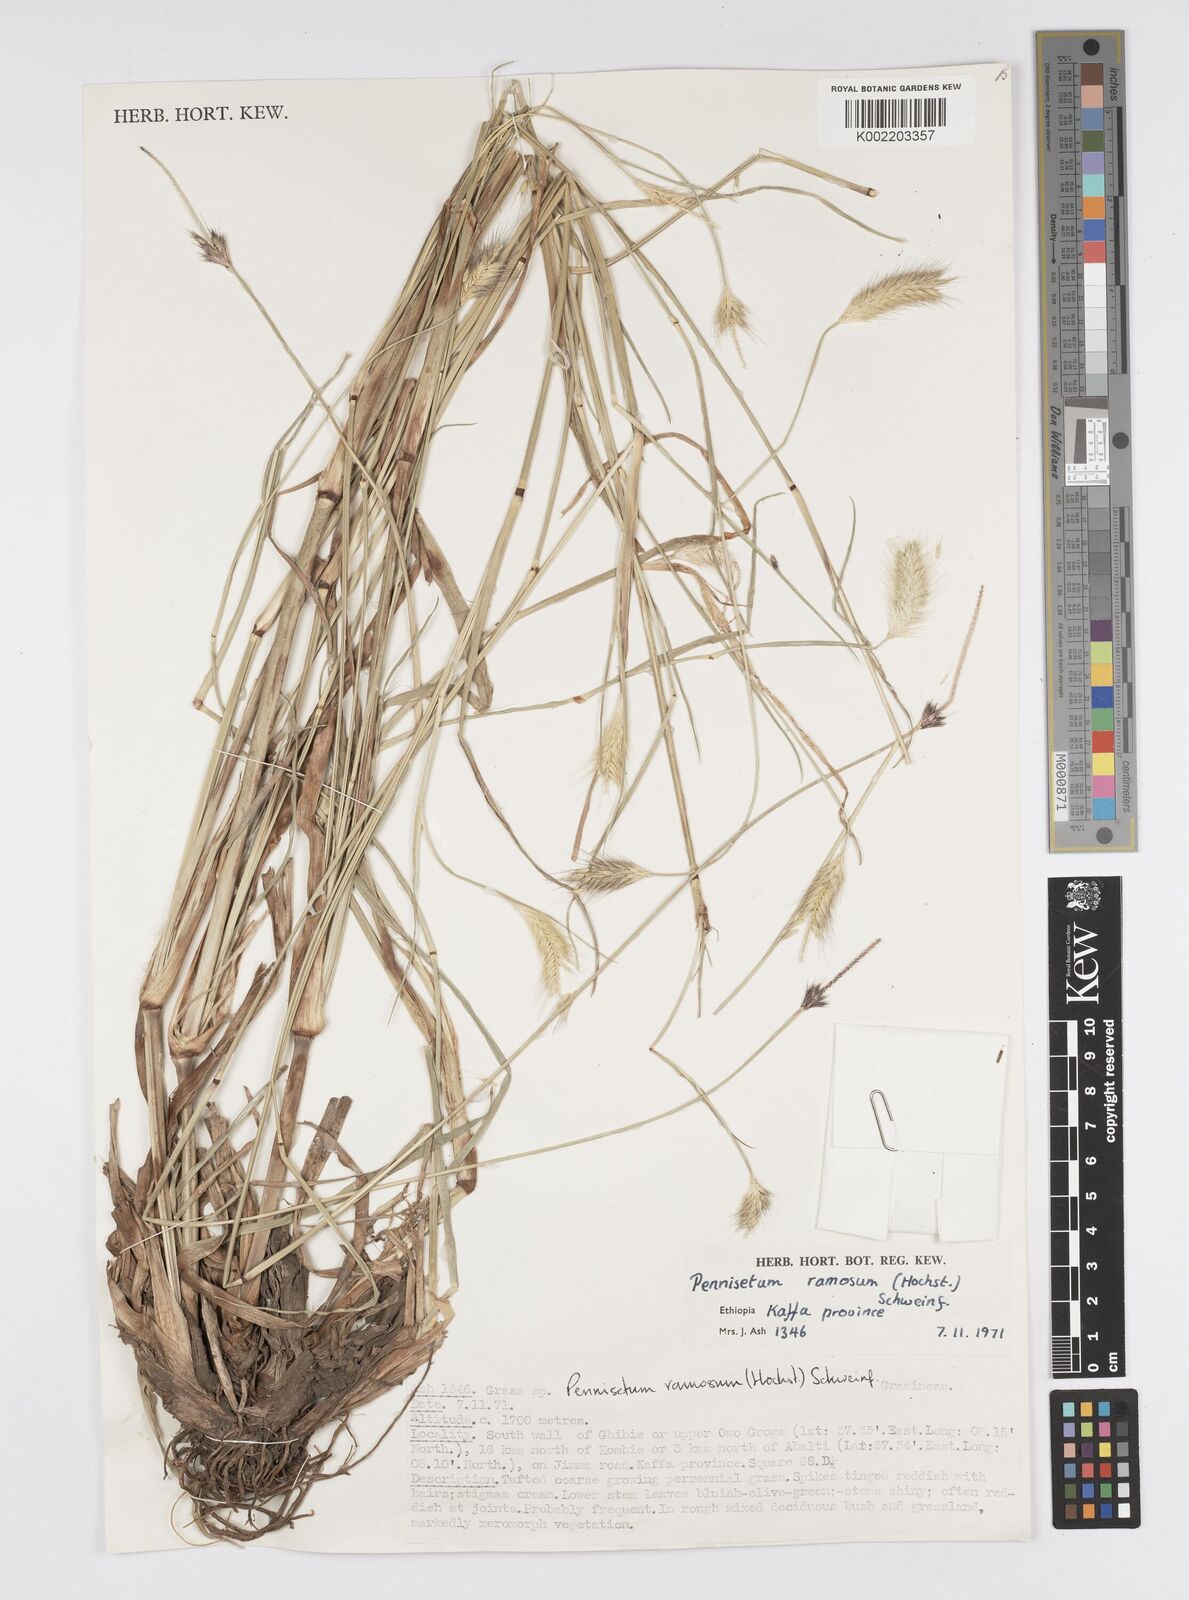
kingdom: Plantae
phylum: Tracheophyta
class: Liliopsida
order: Poales
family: Poaceae
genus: Cenchrus
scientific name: Cenchrus ramosus
